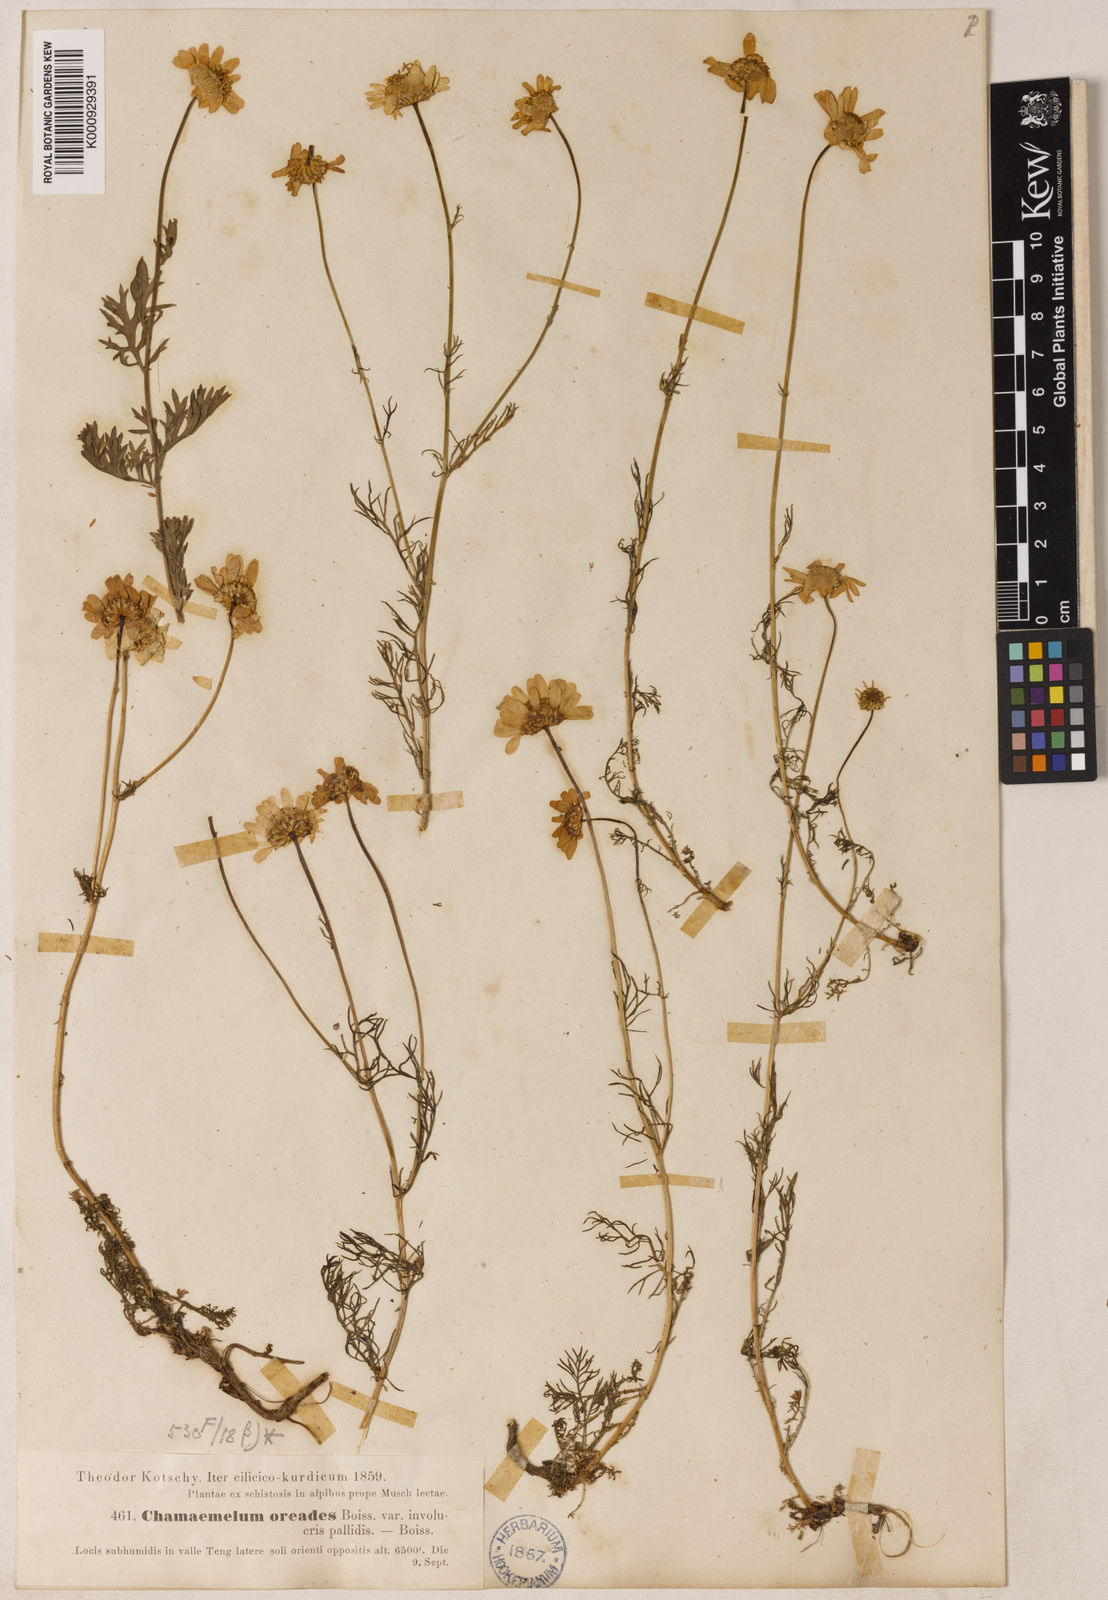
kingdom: Plantae
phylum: Tracheophyta
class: Magnoliopsida
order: Asterales
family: Asteraceae
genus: Tripleurospermum
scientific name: Tripleurospermum caucasicum
